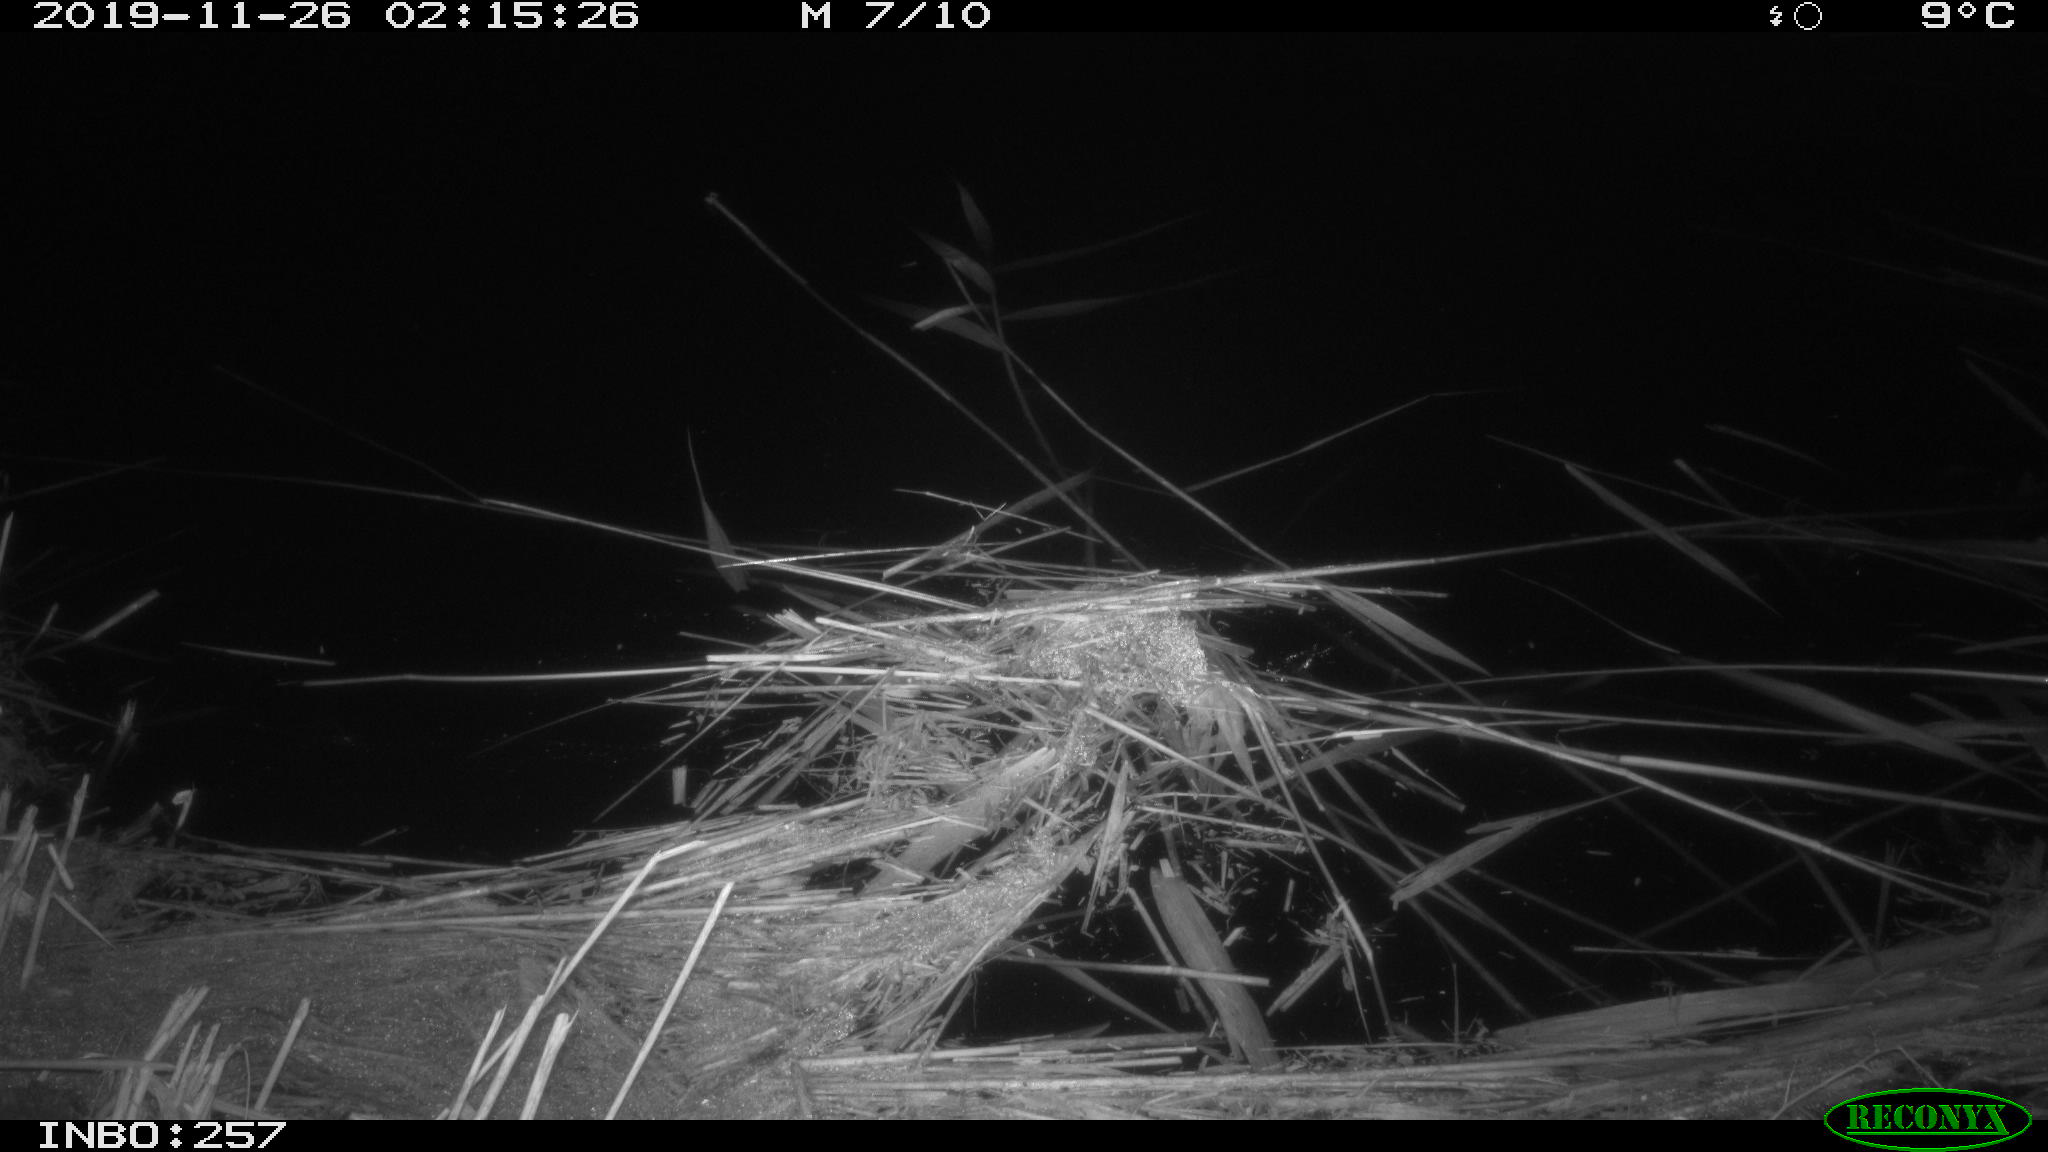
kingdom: Animalia
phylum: Chordata
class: Mammalia
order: Rodentia
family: Cricetidae
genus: Ondatra
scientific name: Ondatra zibethicus
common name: Muskrat
